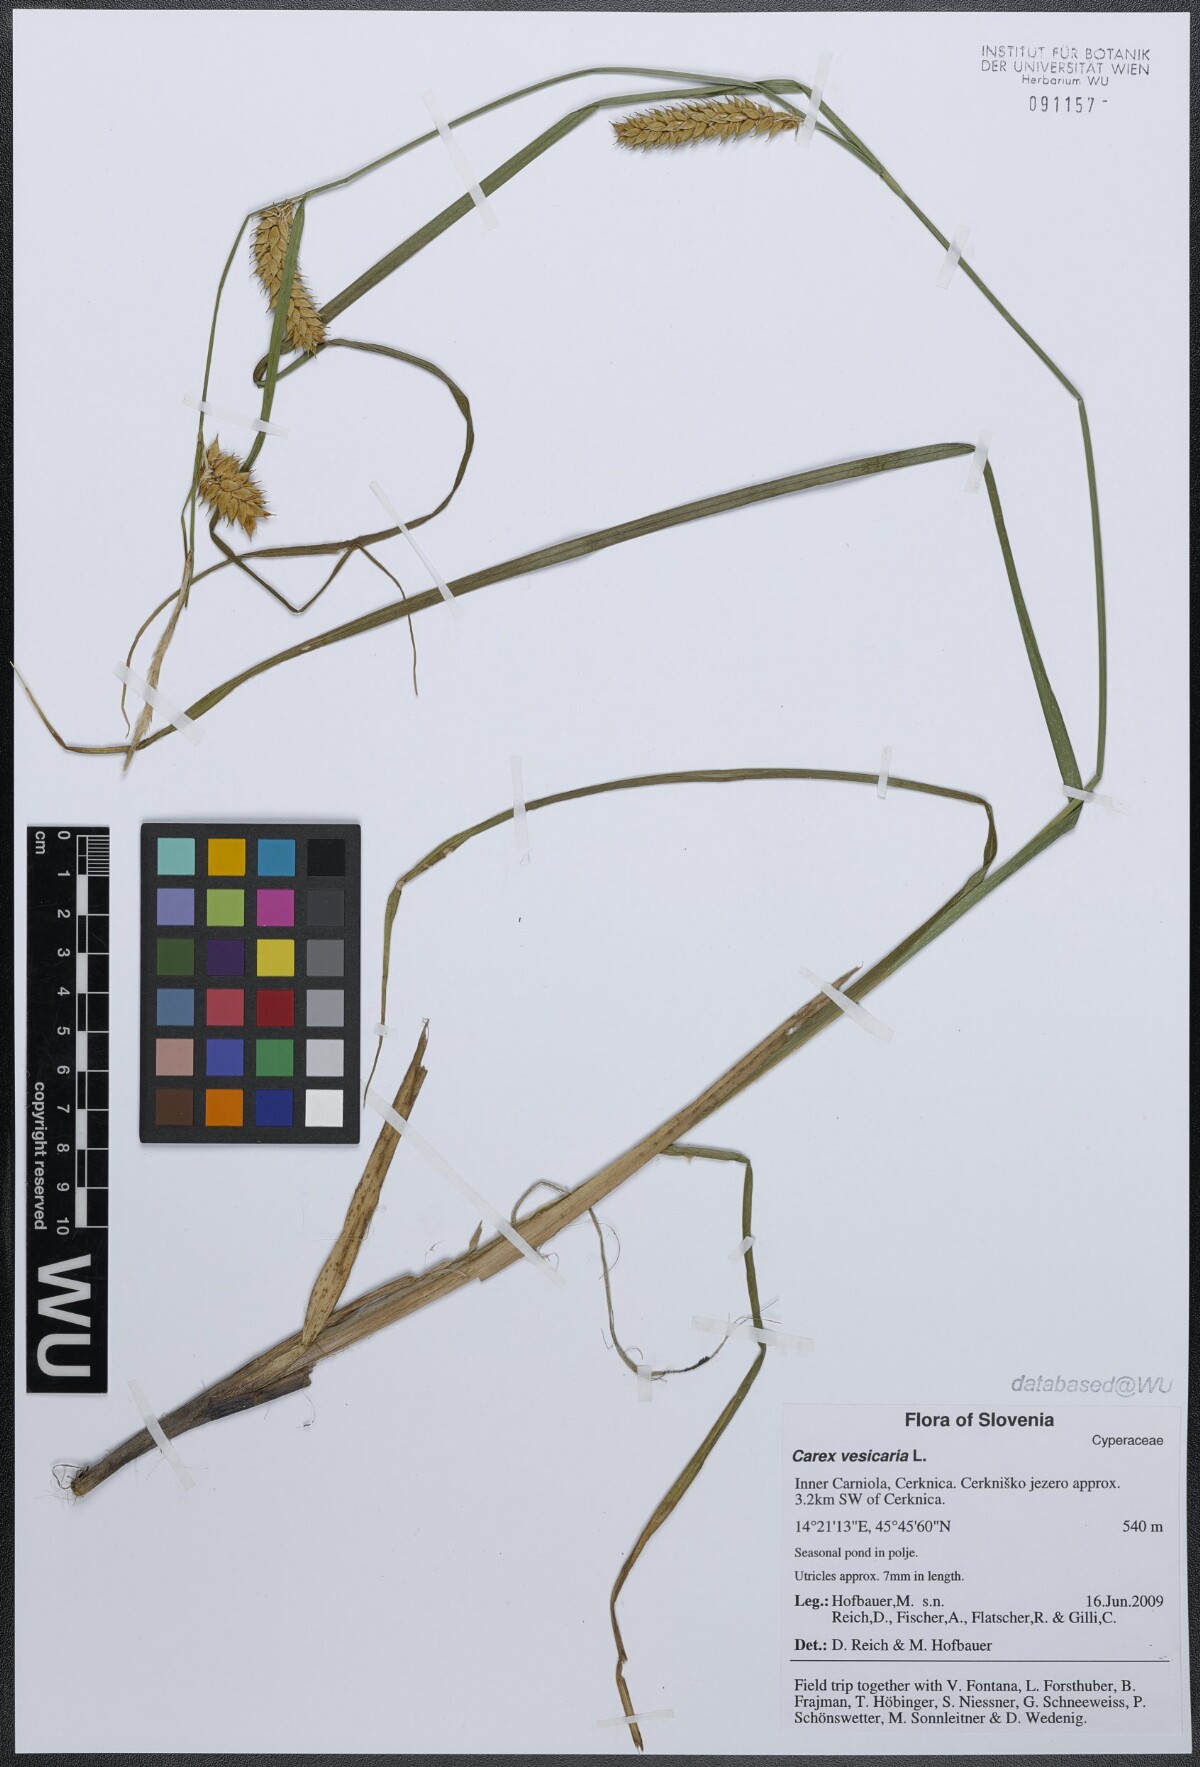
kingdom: Plantae
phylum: Tracheophyta
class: Liliopsida
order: Poales
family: Cyperaceae
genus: Carex
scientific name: Carex vesicaria
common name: Bladder-sedge
